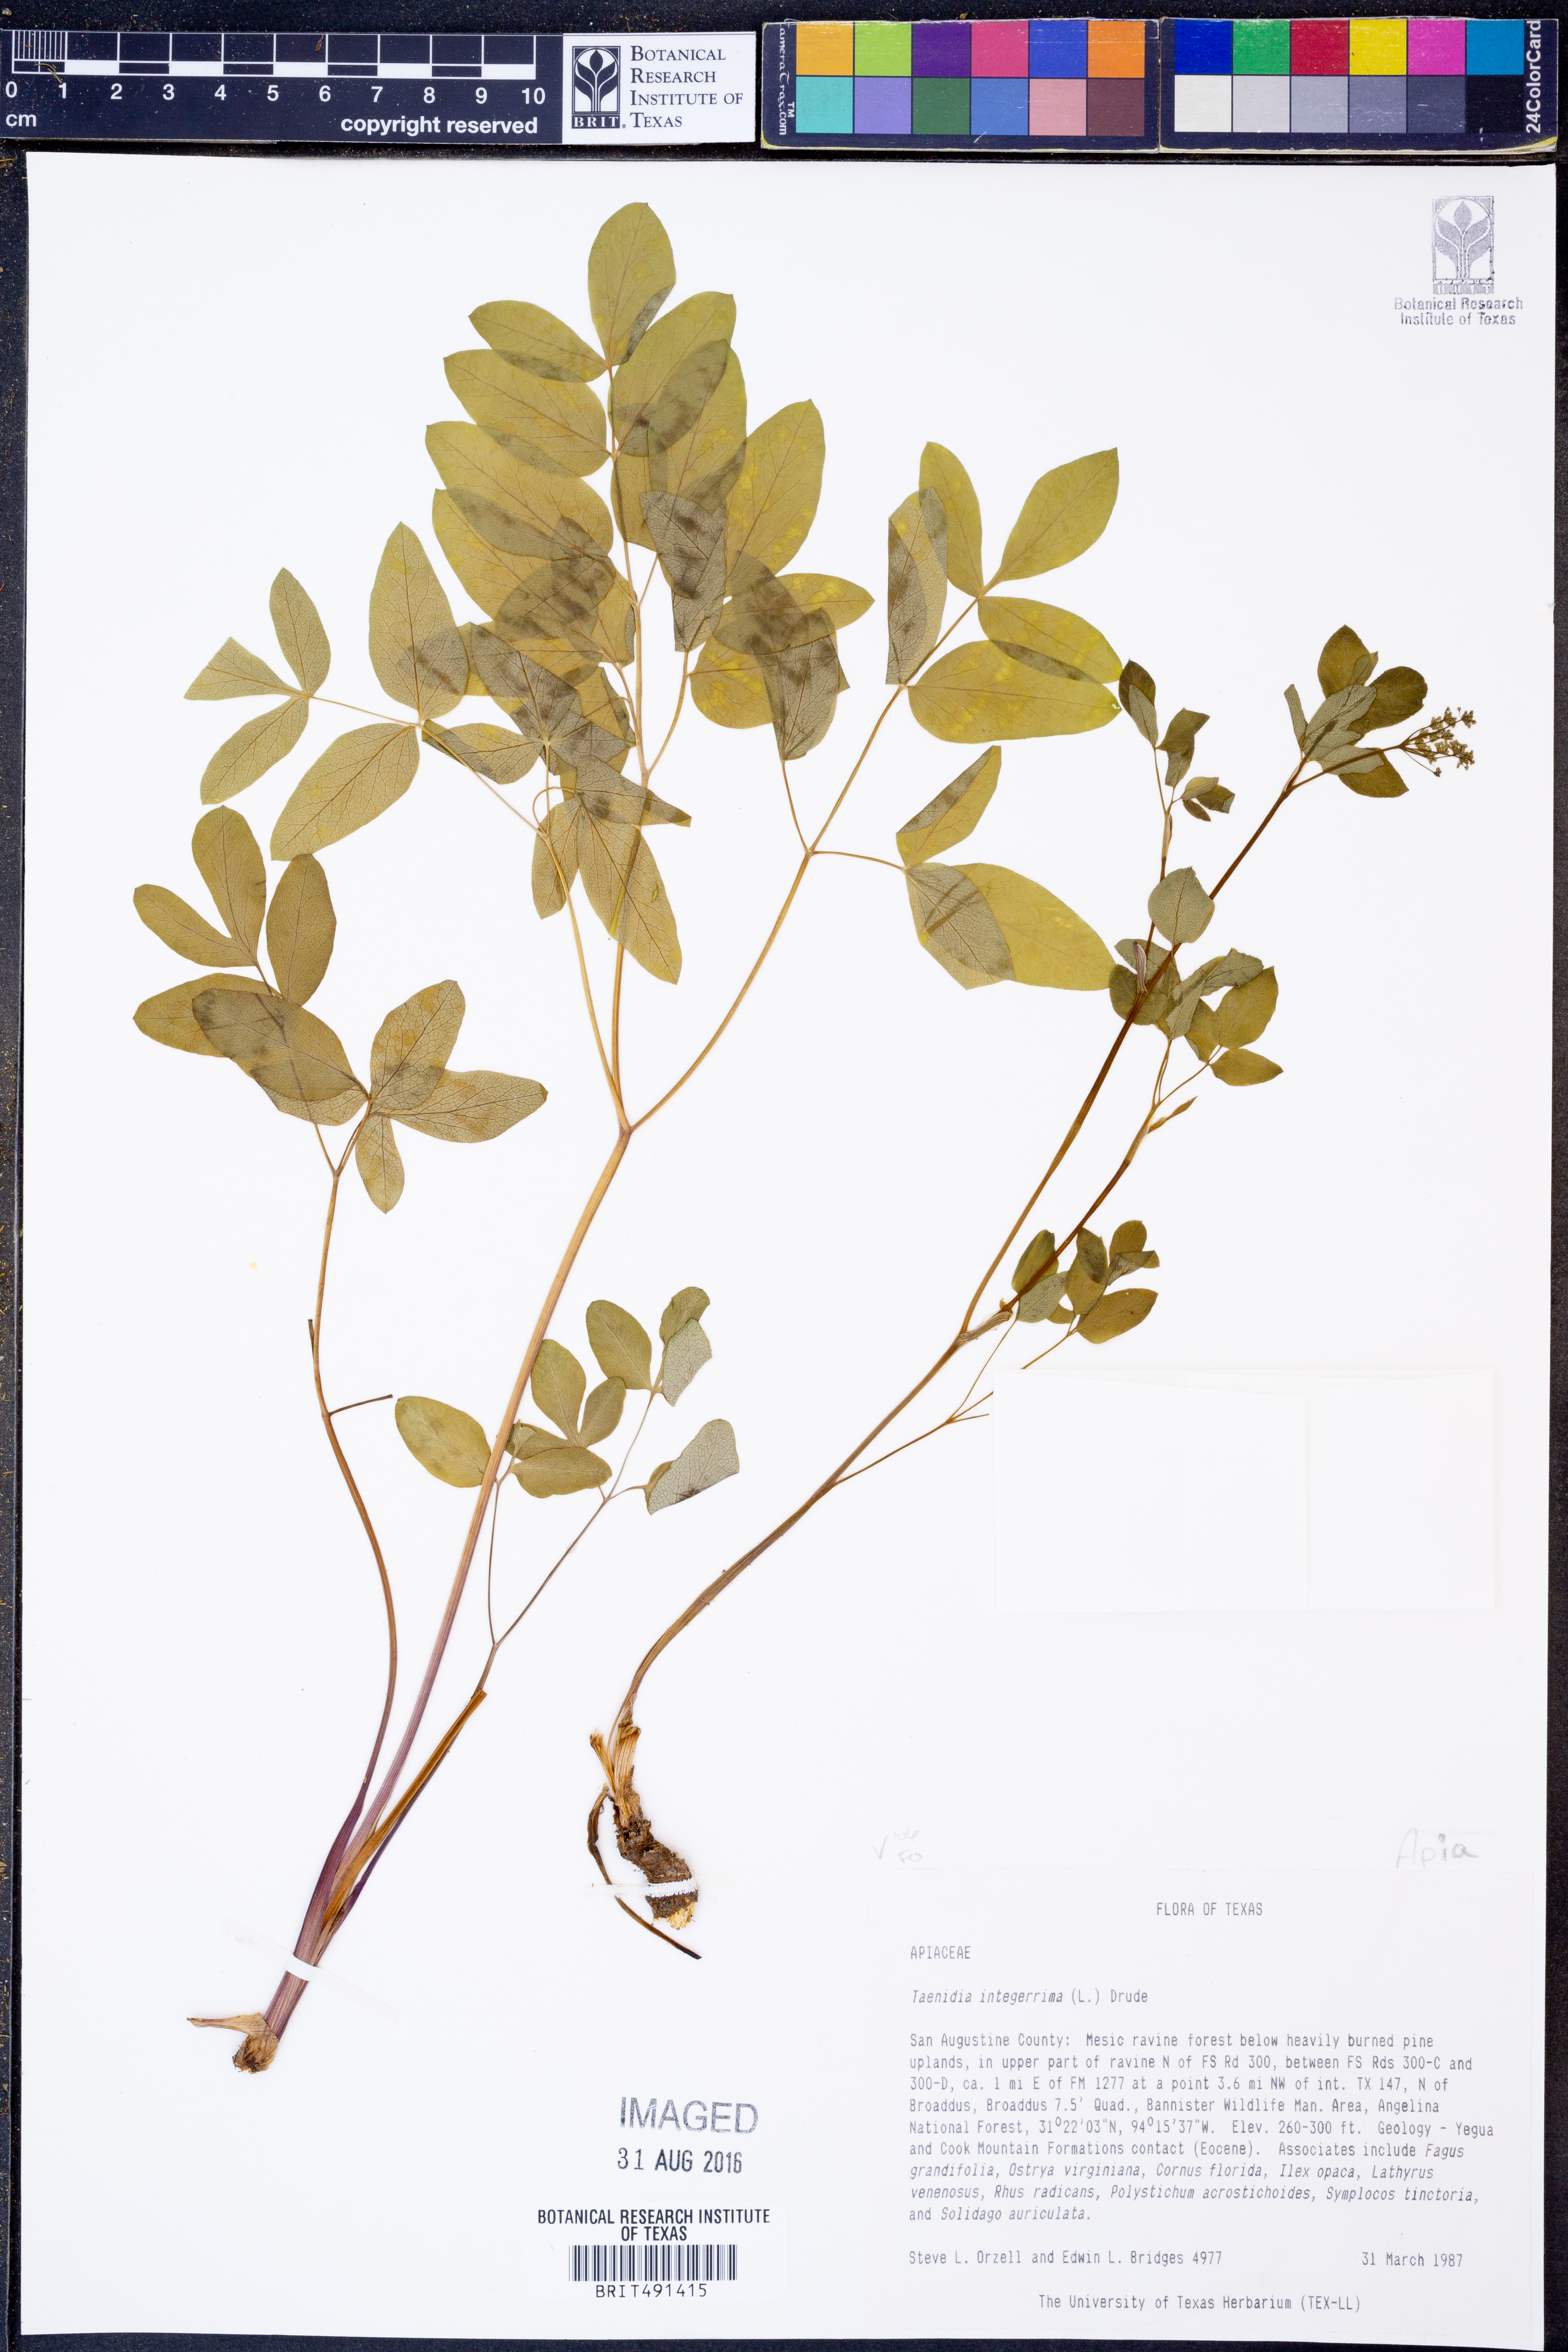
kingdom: Plantae
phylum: Tracheophyta
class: Magnoliopsida
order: Apiales
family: Apiaceae
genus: Taenidia
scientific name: Taenidia integerrima
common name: Golden alexander
